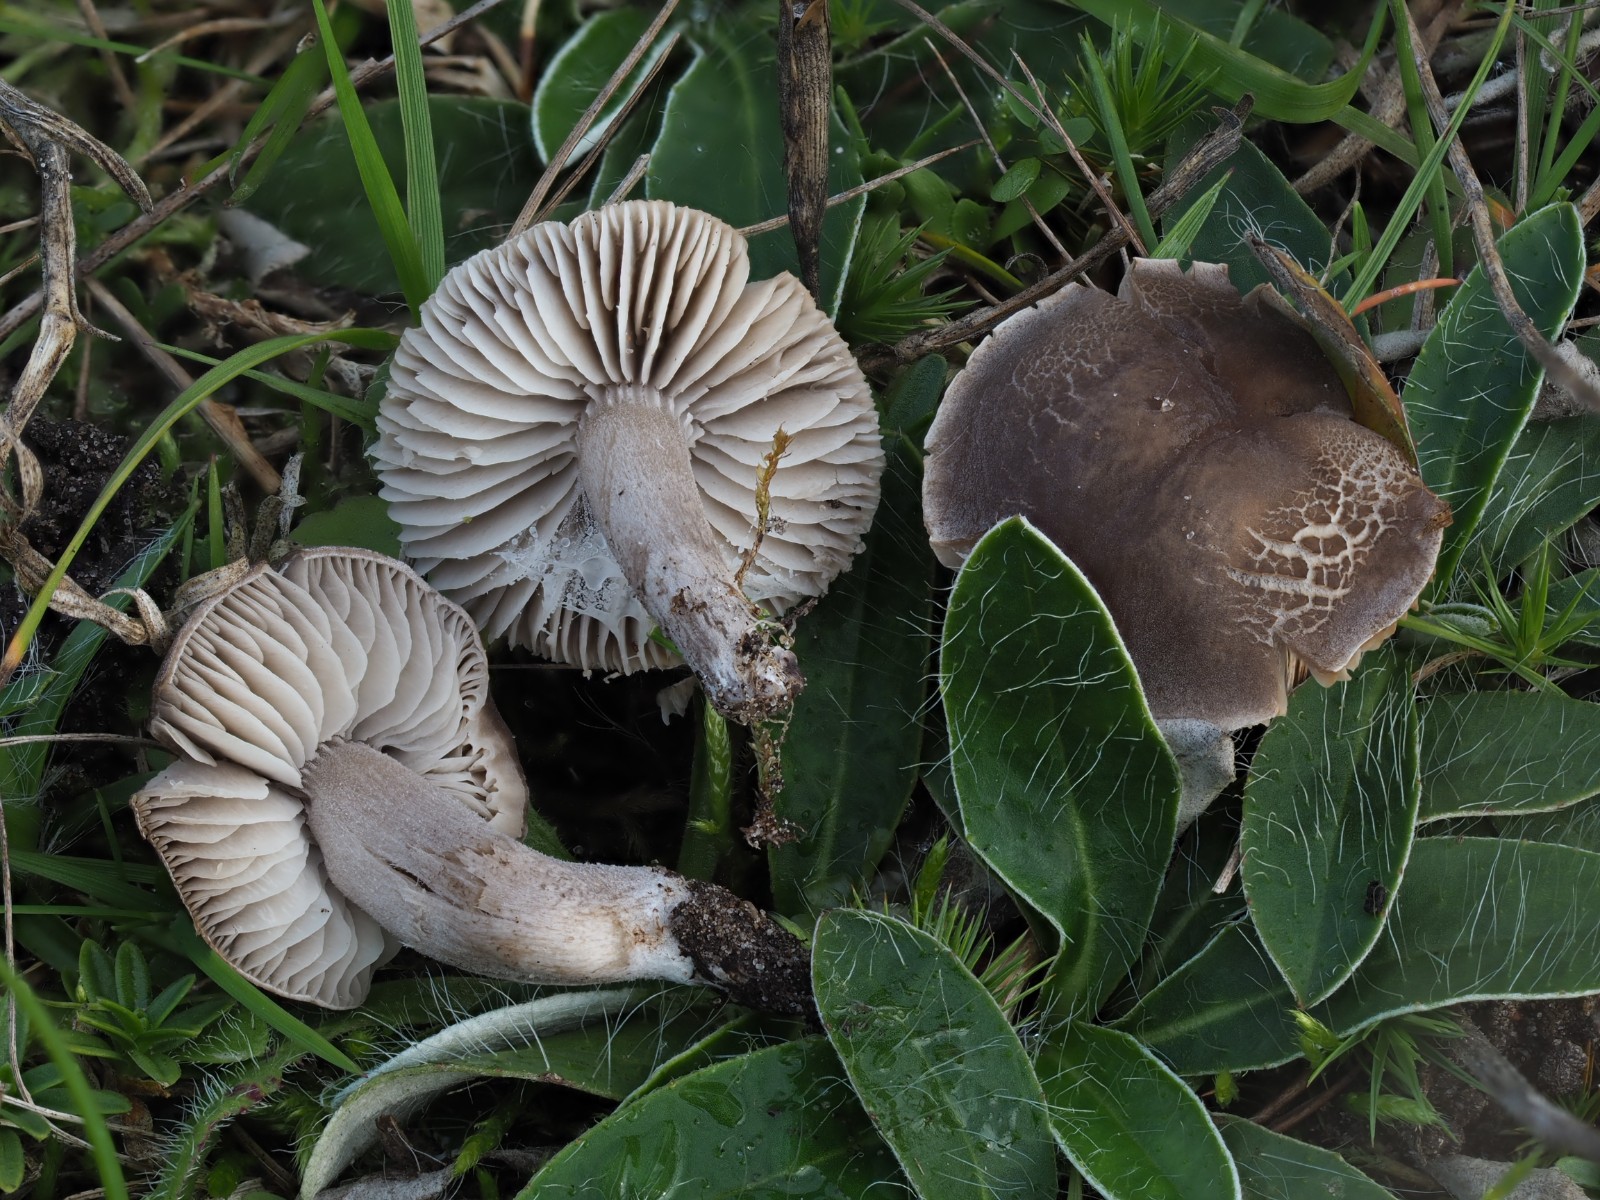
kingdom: Fungi
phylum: Basidiomycota
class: Agaricomycetes
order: Agaricales
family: Tricholomataceae
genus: Dermoloma
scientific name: Dermoloma cuneifolium
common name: eng-nonnehat
